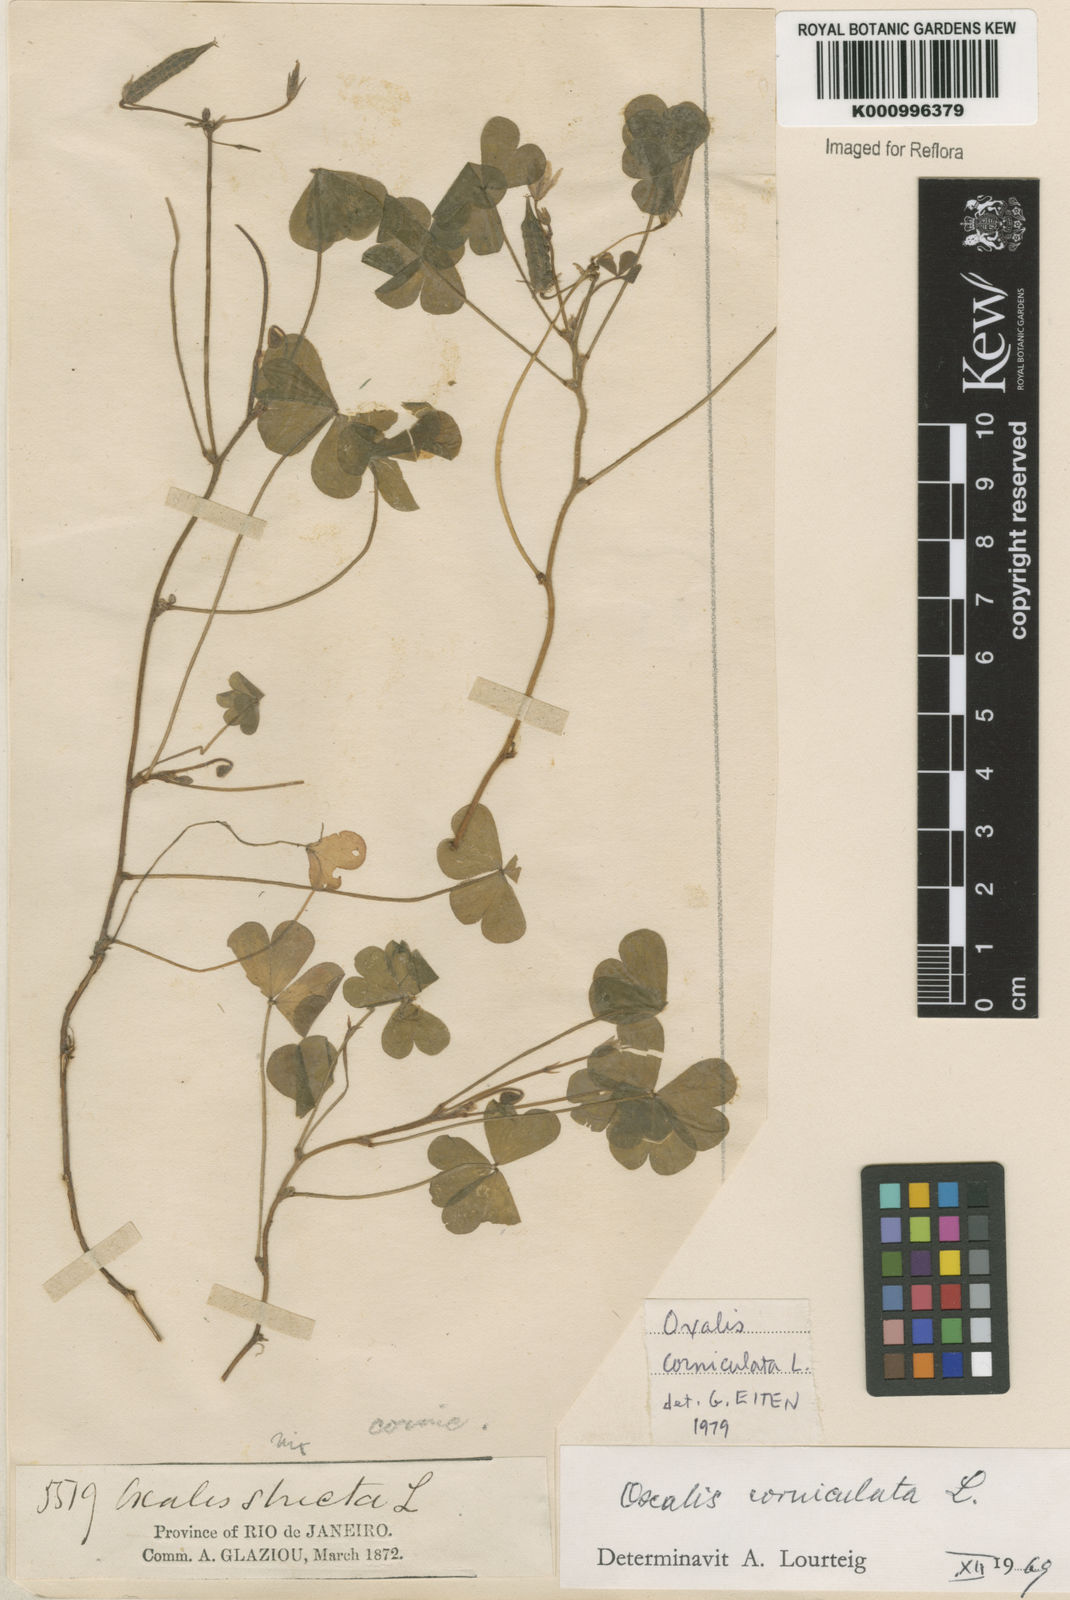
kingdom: Plantae
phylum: Tracheophyta
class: Magnoliopsida
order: Oxalidales
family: Oxalidaceae
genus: Oxalis
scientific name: Oxalis corniculata
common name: Procumbent yellow-sorrel
